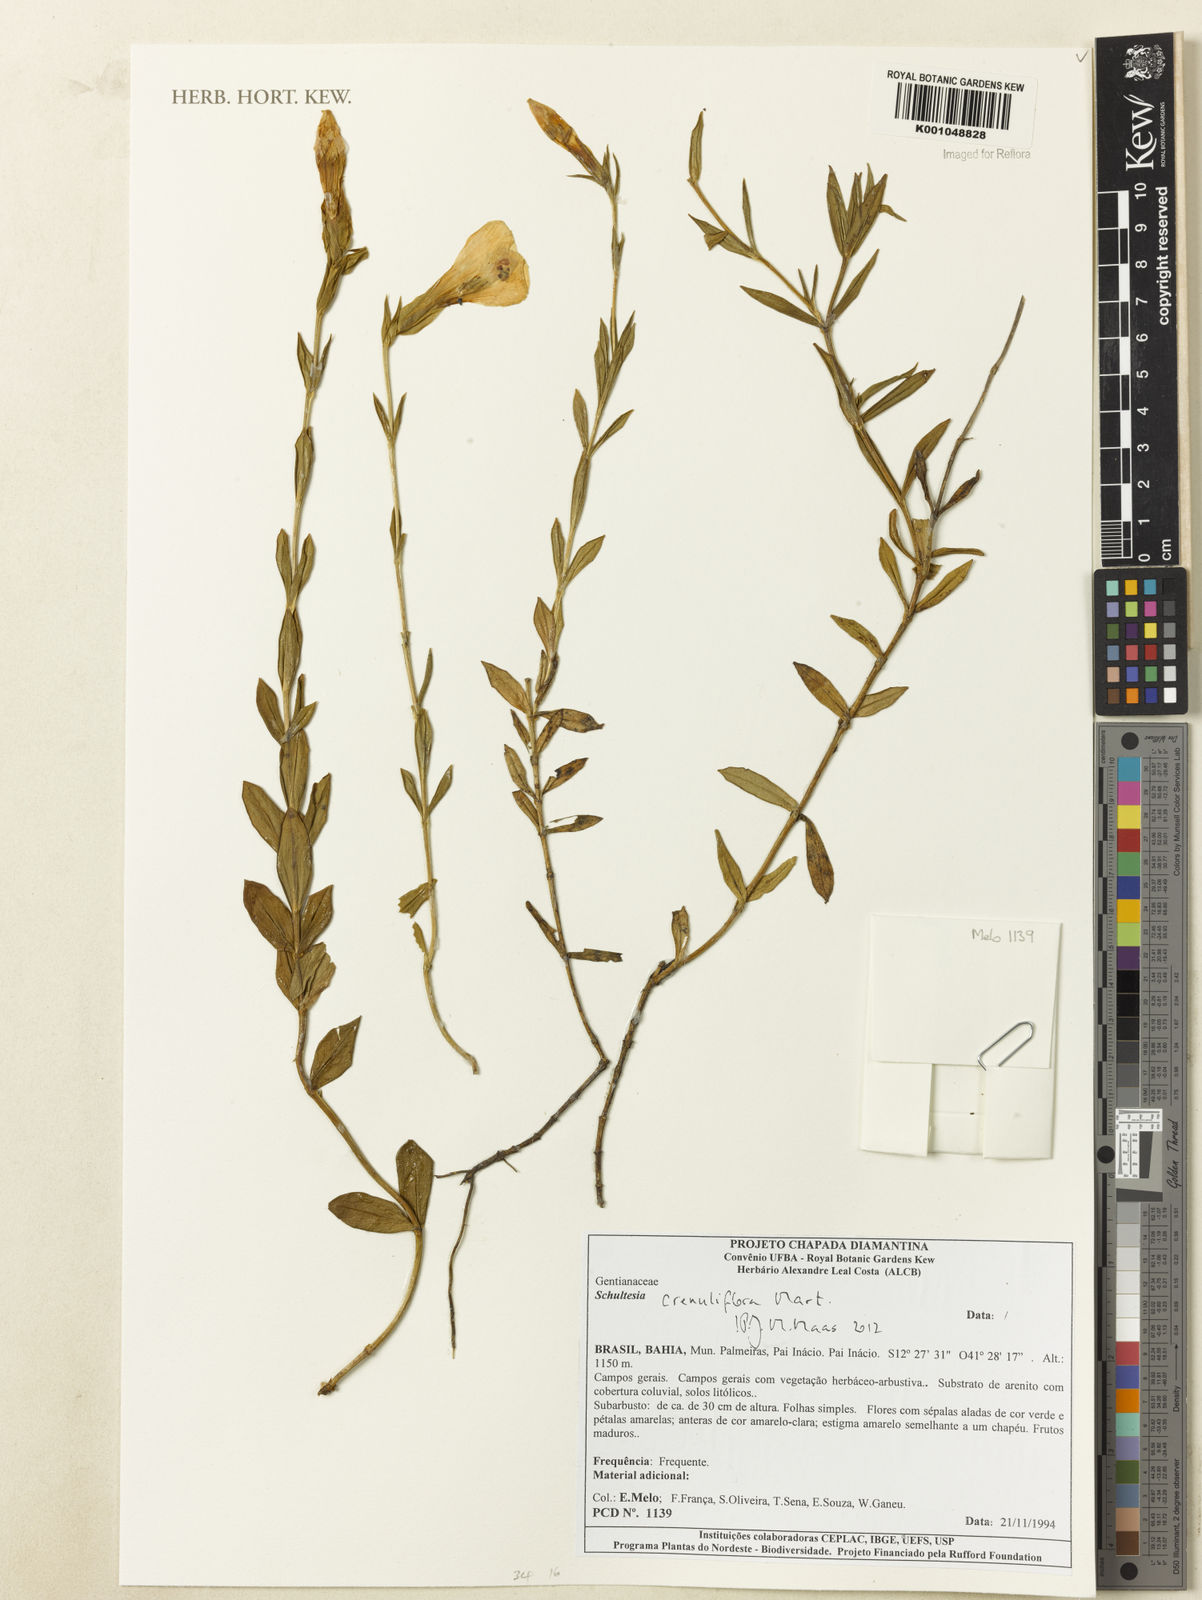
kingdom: Plantae
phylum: Tracheophyta
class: Magnoliopsida
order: Gentianales
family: Gentianaceae
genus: Schultesia
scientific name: Schultesia crenuliflora
